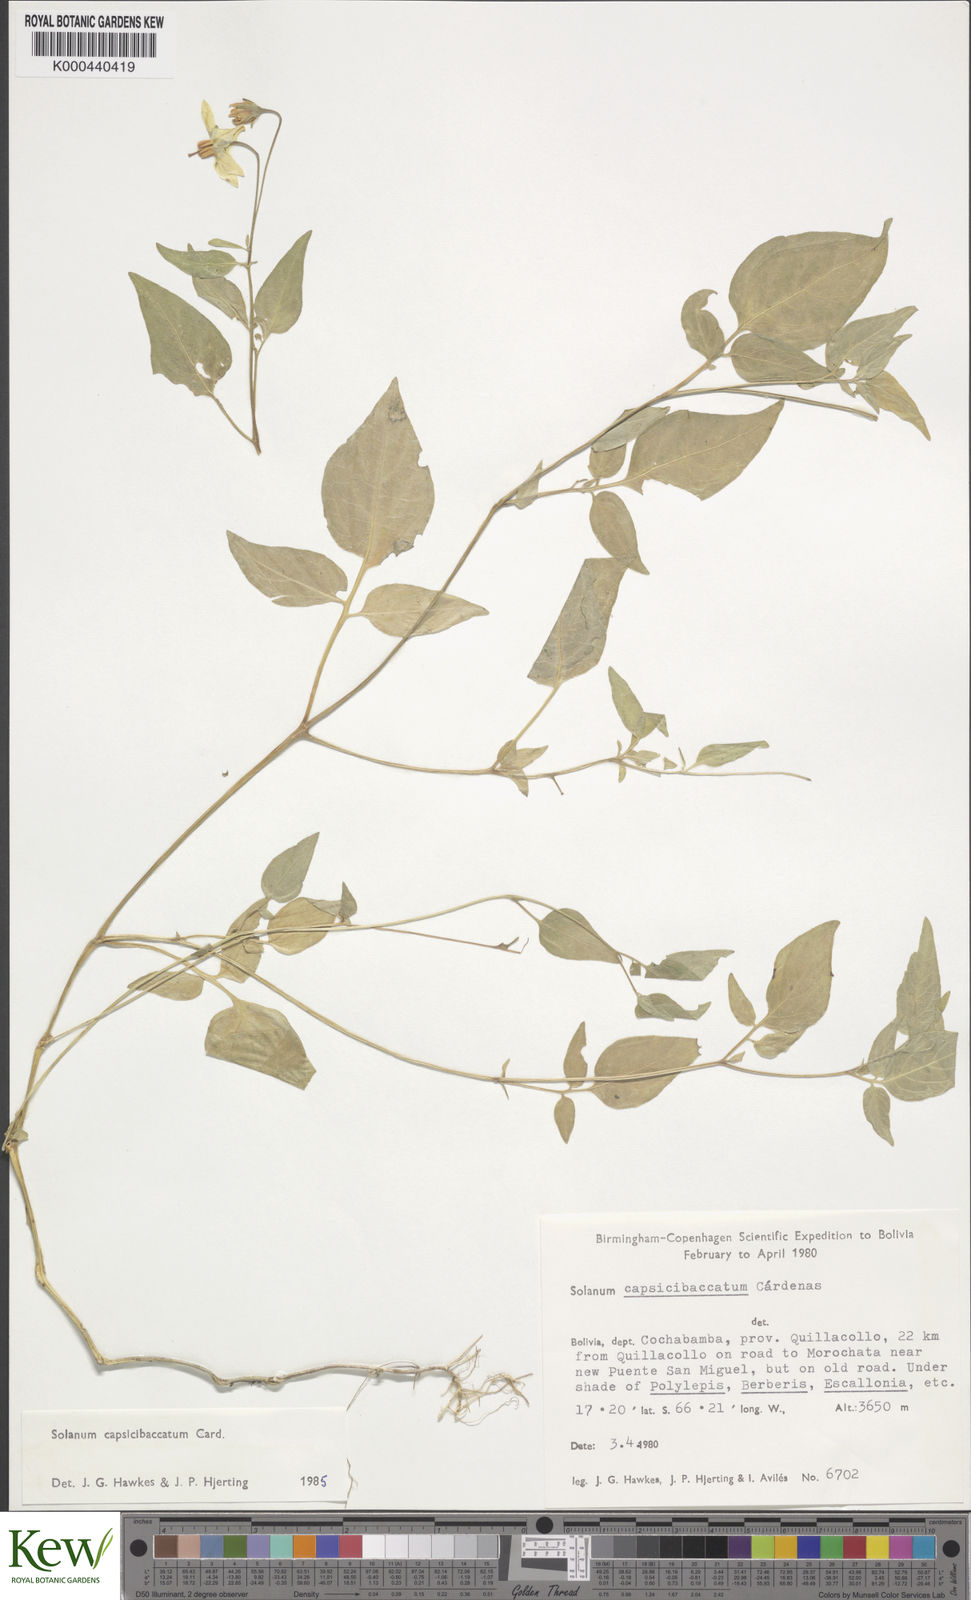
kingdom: Plantae
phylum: Tracheophyta
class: Magnoliopsida
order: Solanales
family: Solanaceae
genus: Solanum
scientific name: Solanum stipuloideum
